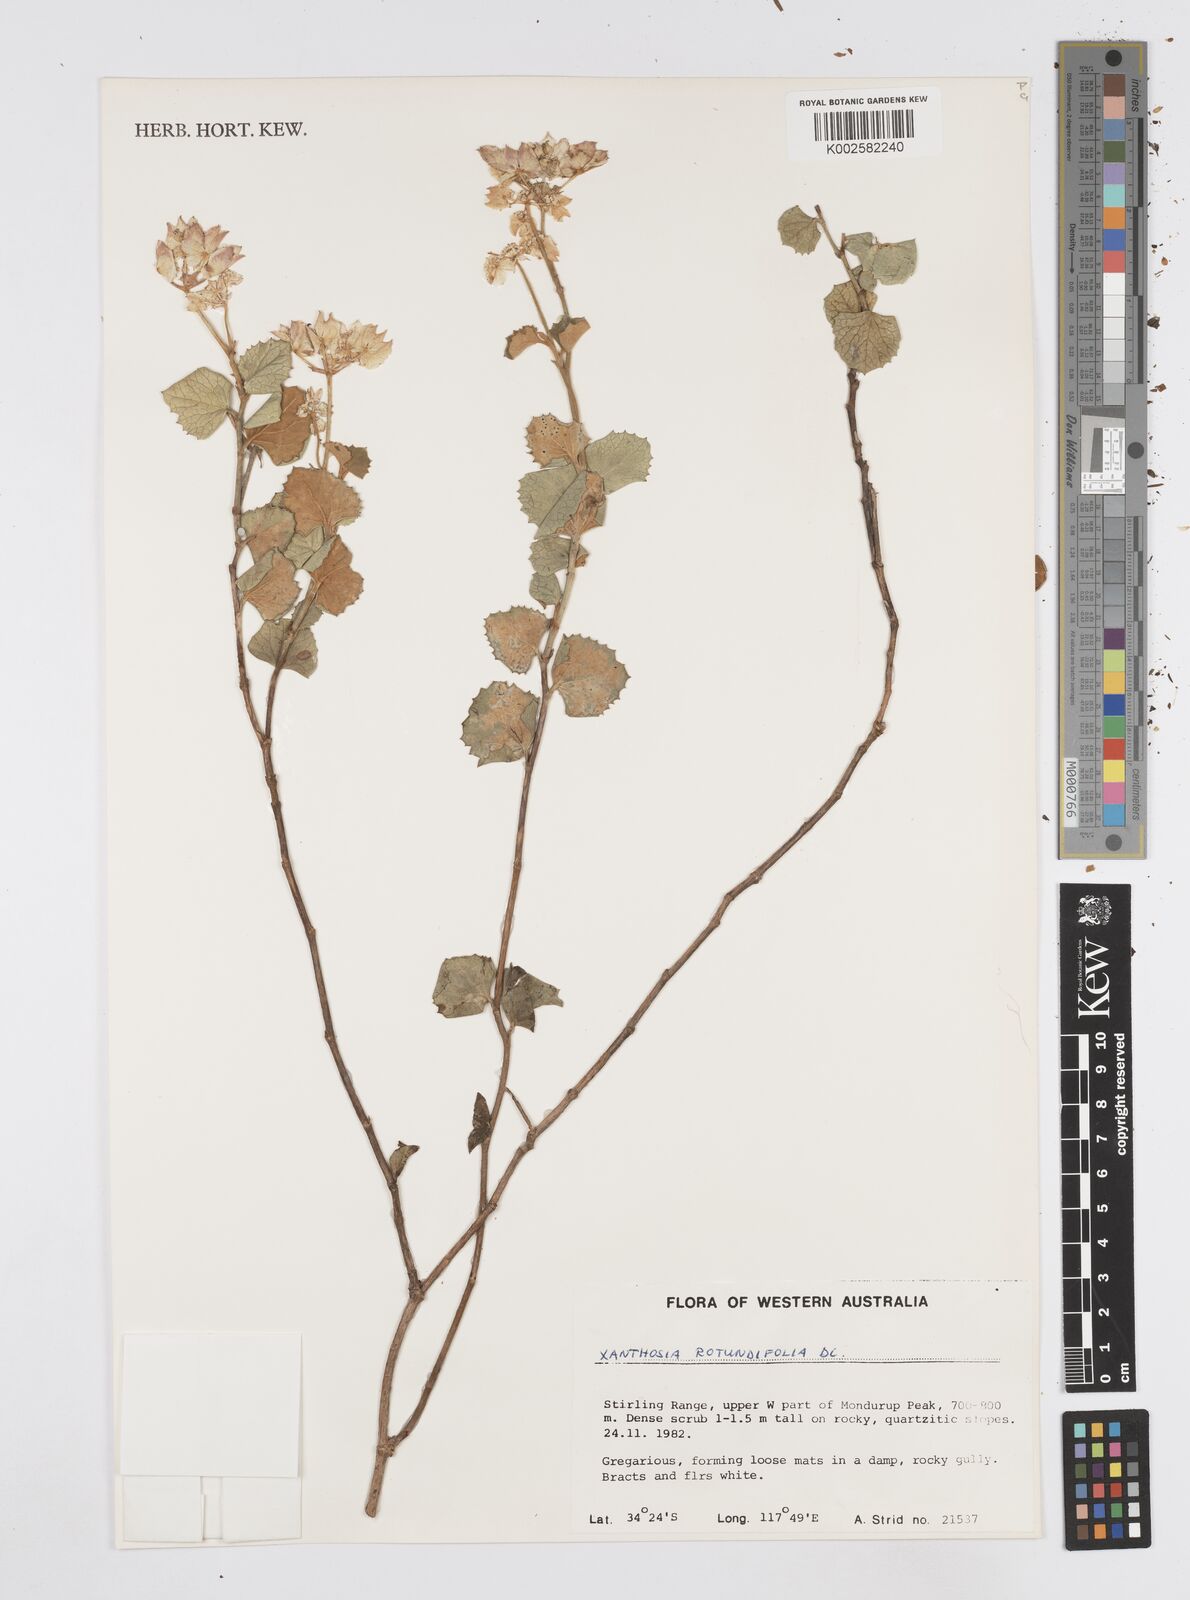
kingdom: Plantae
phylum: Tracheophyta
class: Magnoliopsida
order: Apiales
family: Apiaceae
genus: Xanthosia
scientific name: Xanthosia rotundifolia
